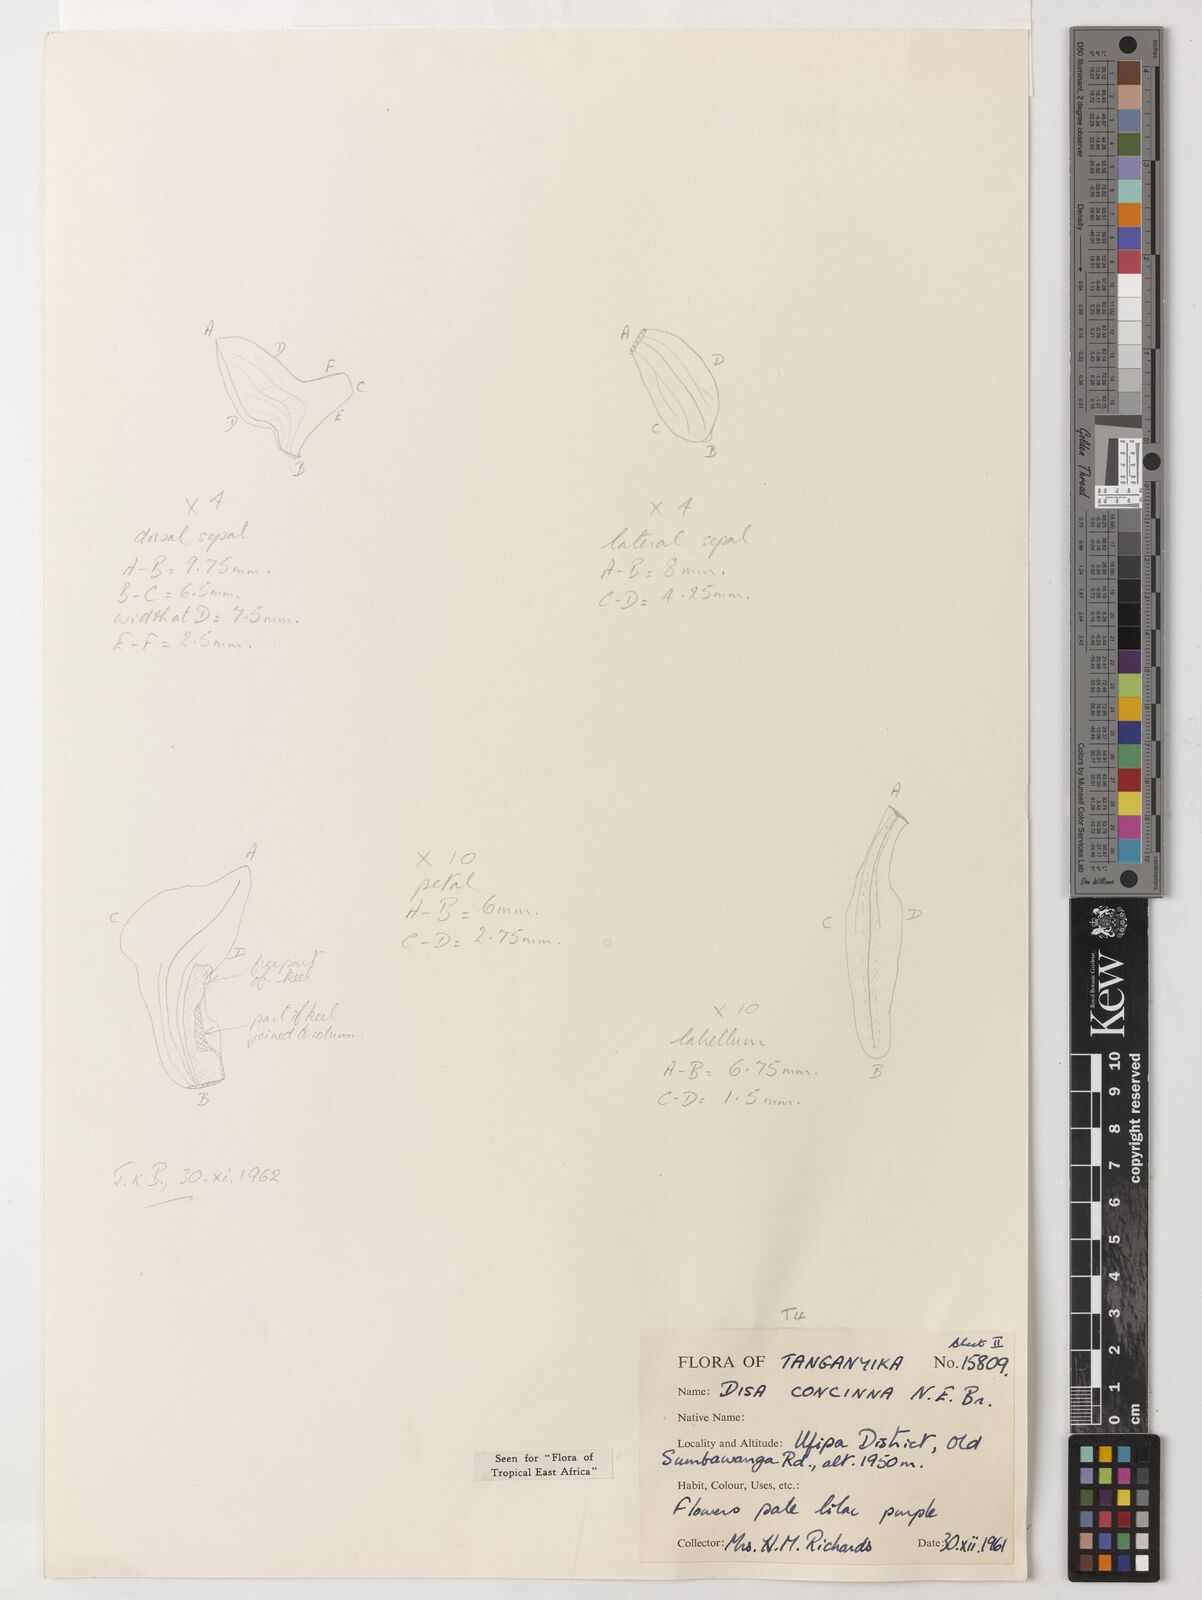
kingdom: Plantae
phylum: Tracheophyta
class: Liliopsida
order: Asparagales
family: Orchidaceae
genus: Disa
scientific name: Disa aperta
